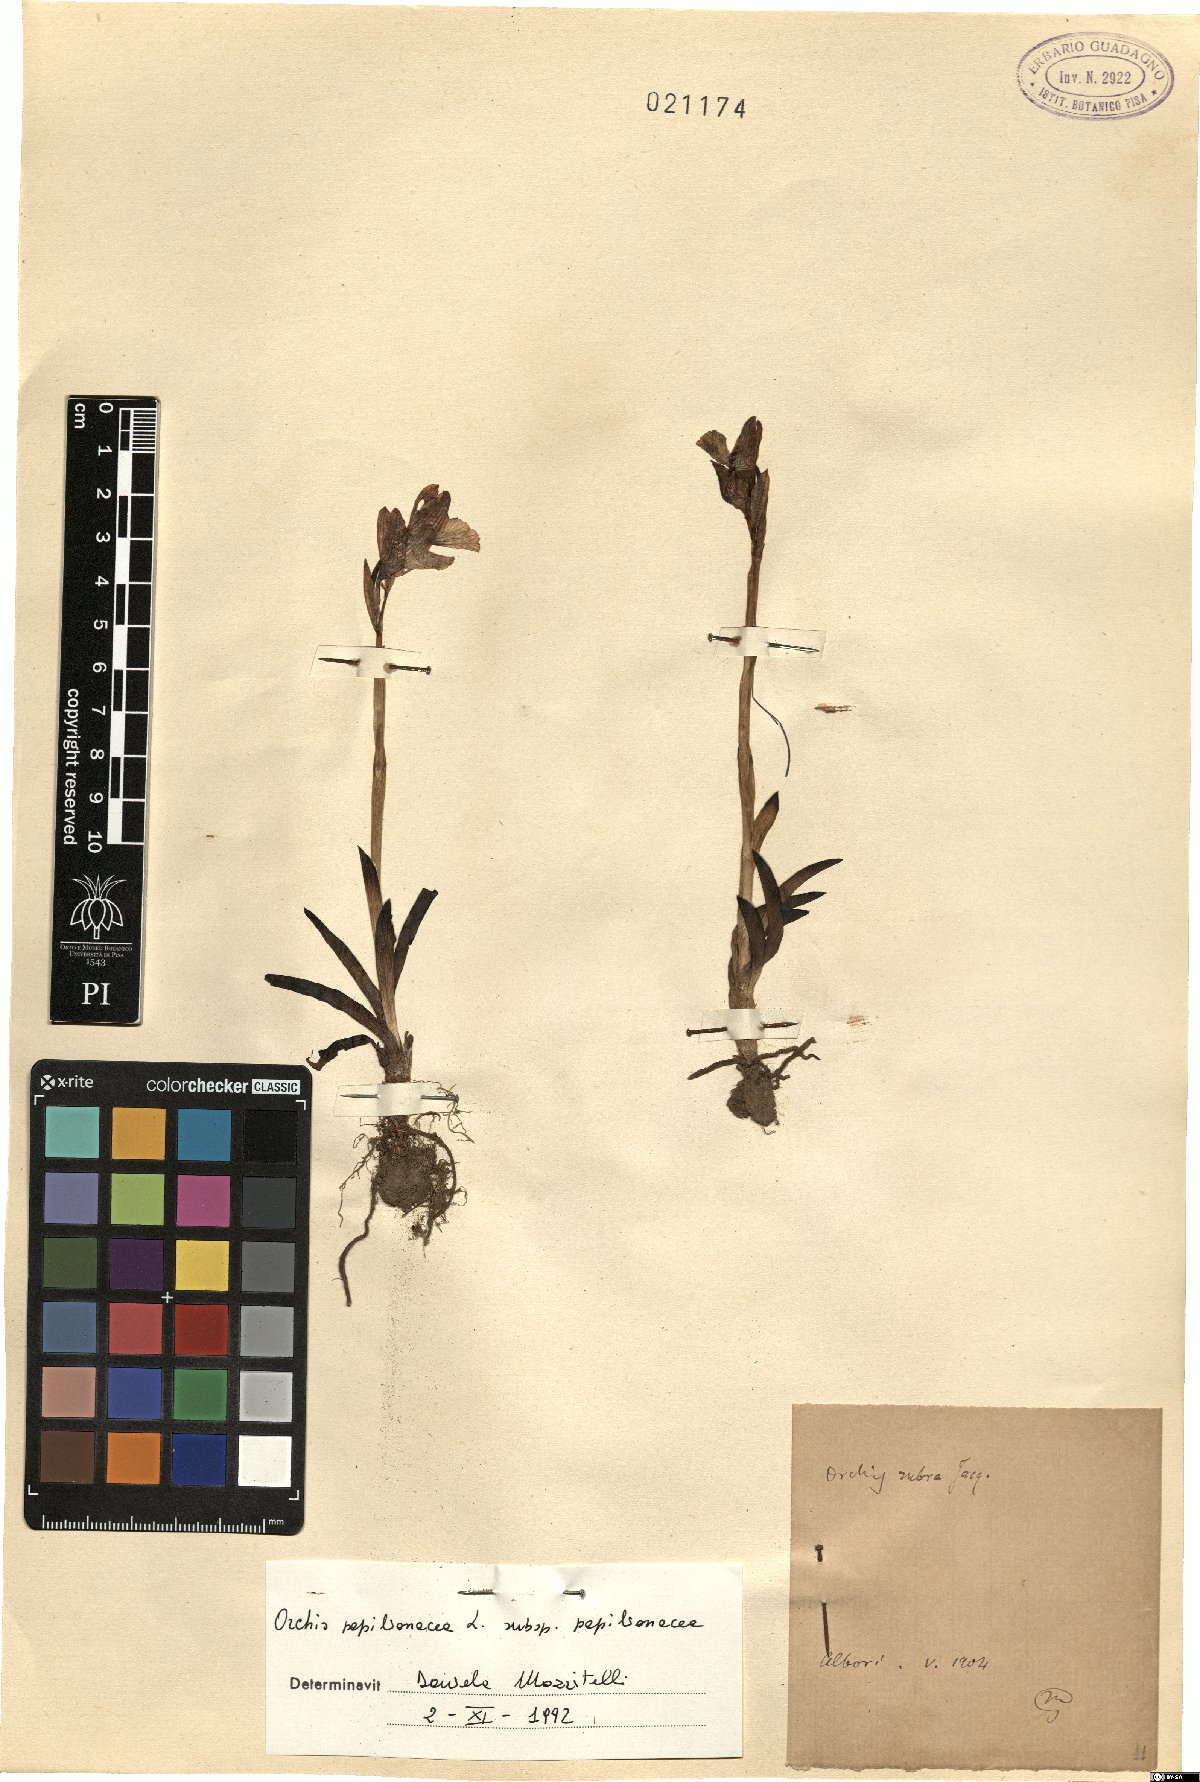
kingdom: Plantae
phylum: Tracheophyta
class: Liliopsida
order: Asparagales
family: Orchidaceae
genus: Anacamptis
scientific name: Anacamptis papilionacea
